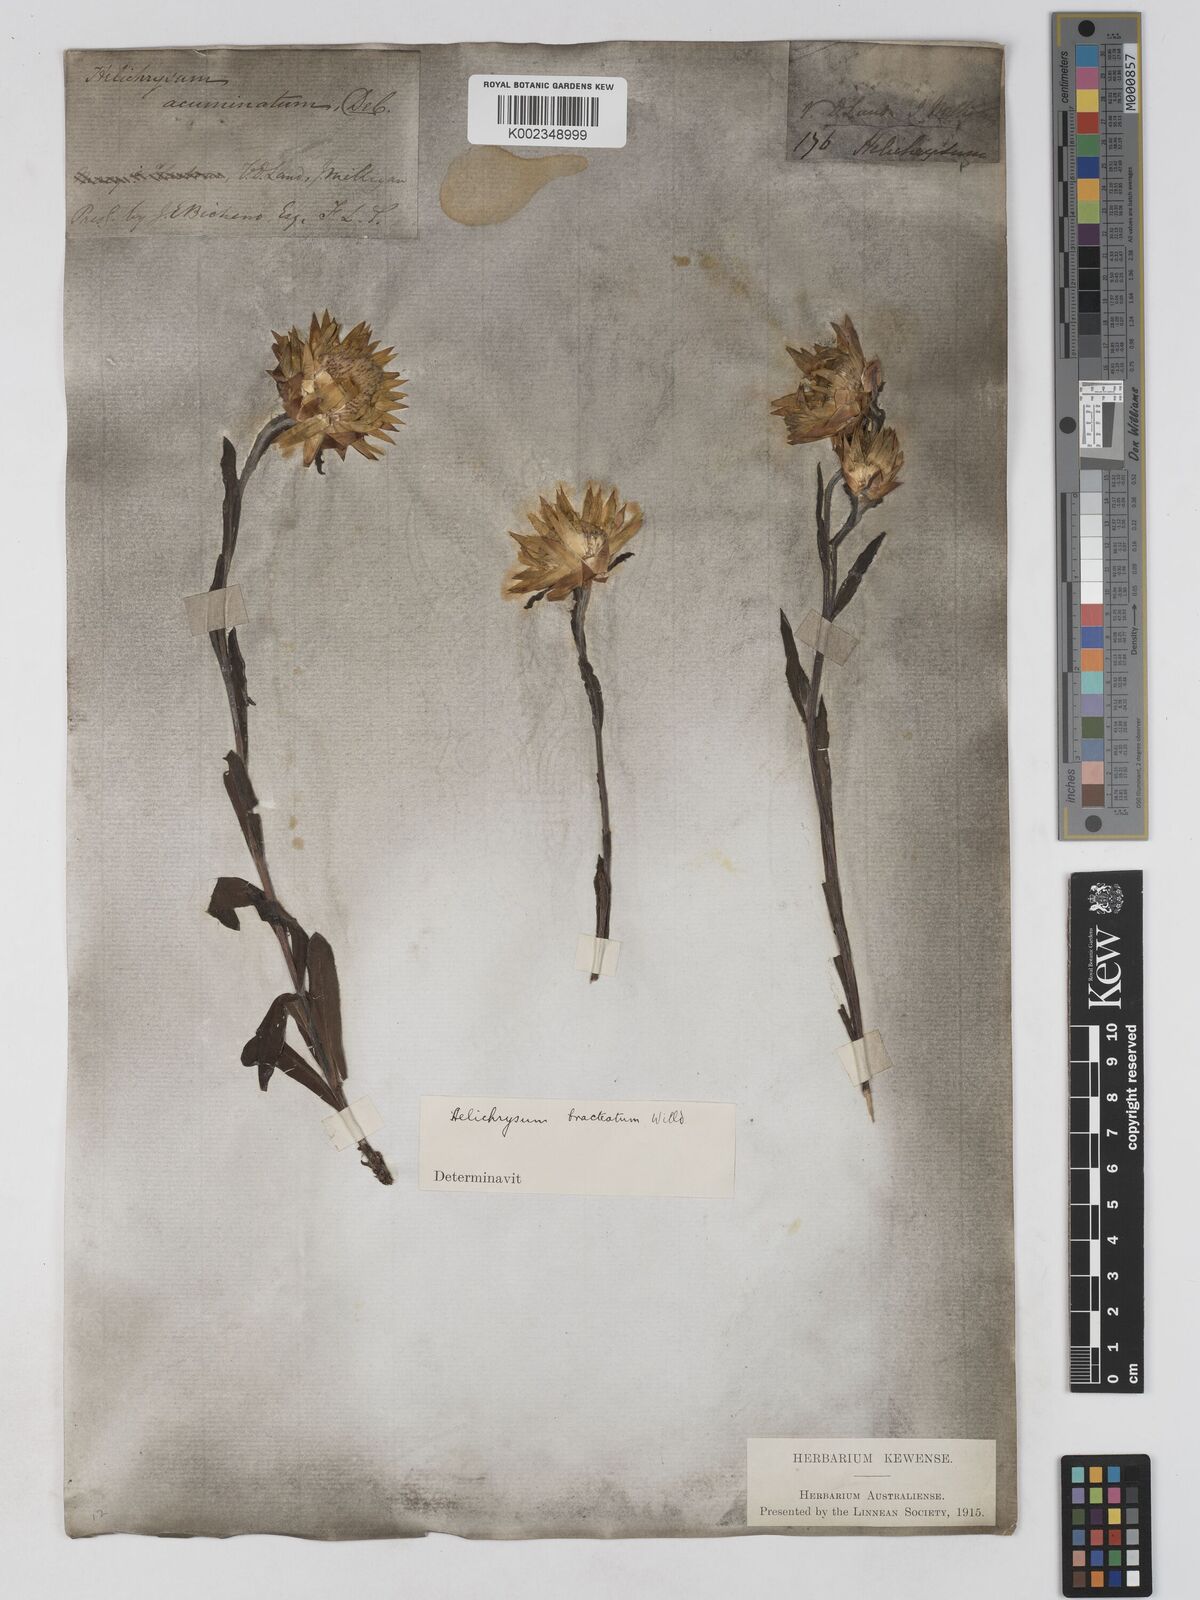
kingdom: Plantae
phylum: Tracheophyta
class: Magnoliopsida
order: Asterales
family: Asteraceae
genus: Xerochrysum
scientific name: Xerochrysum bracteatum
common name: Bracted strawflower
